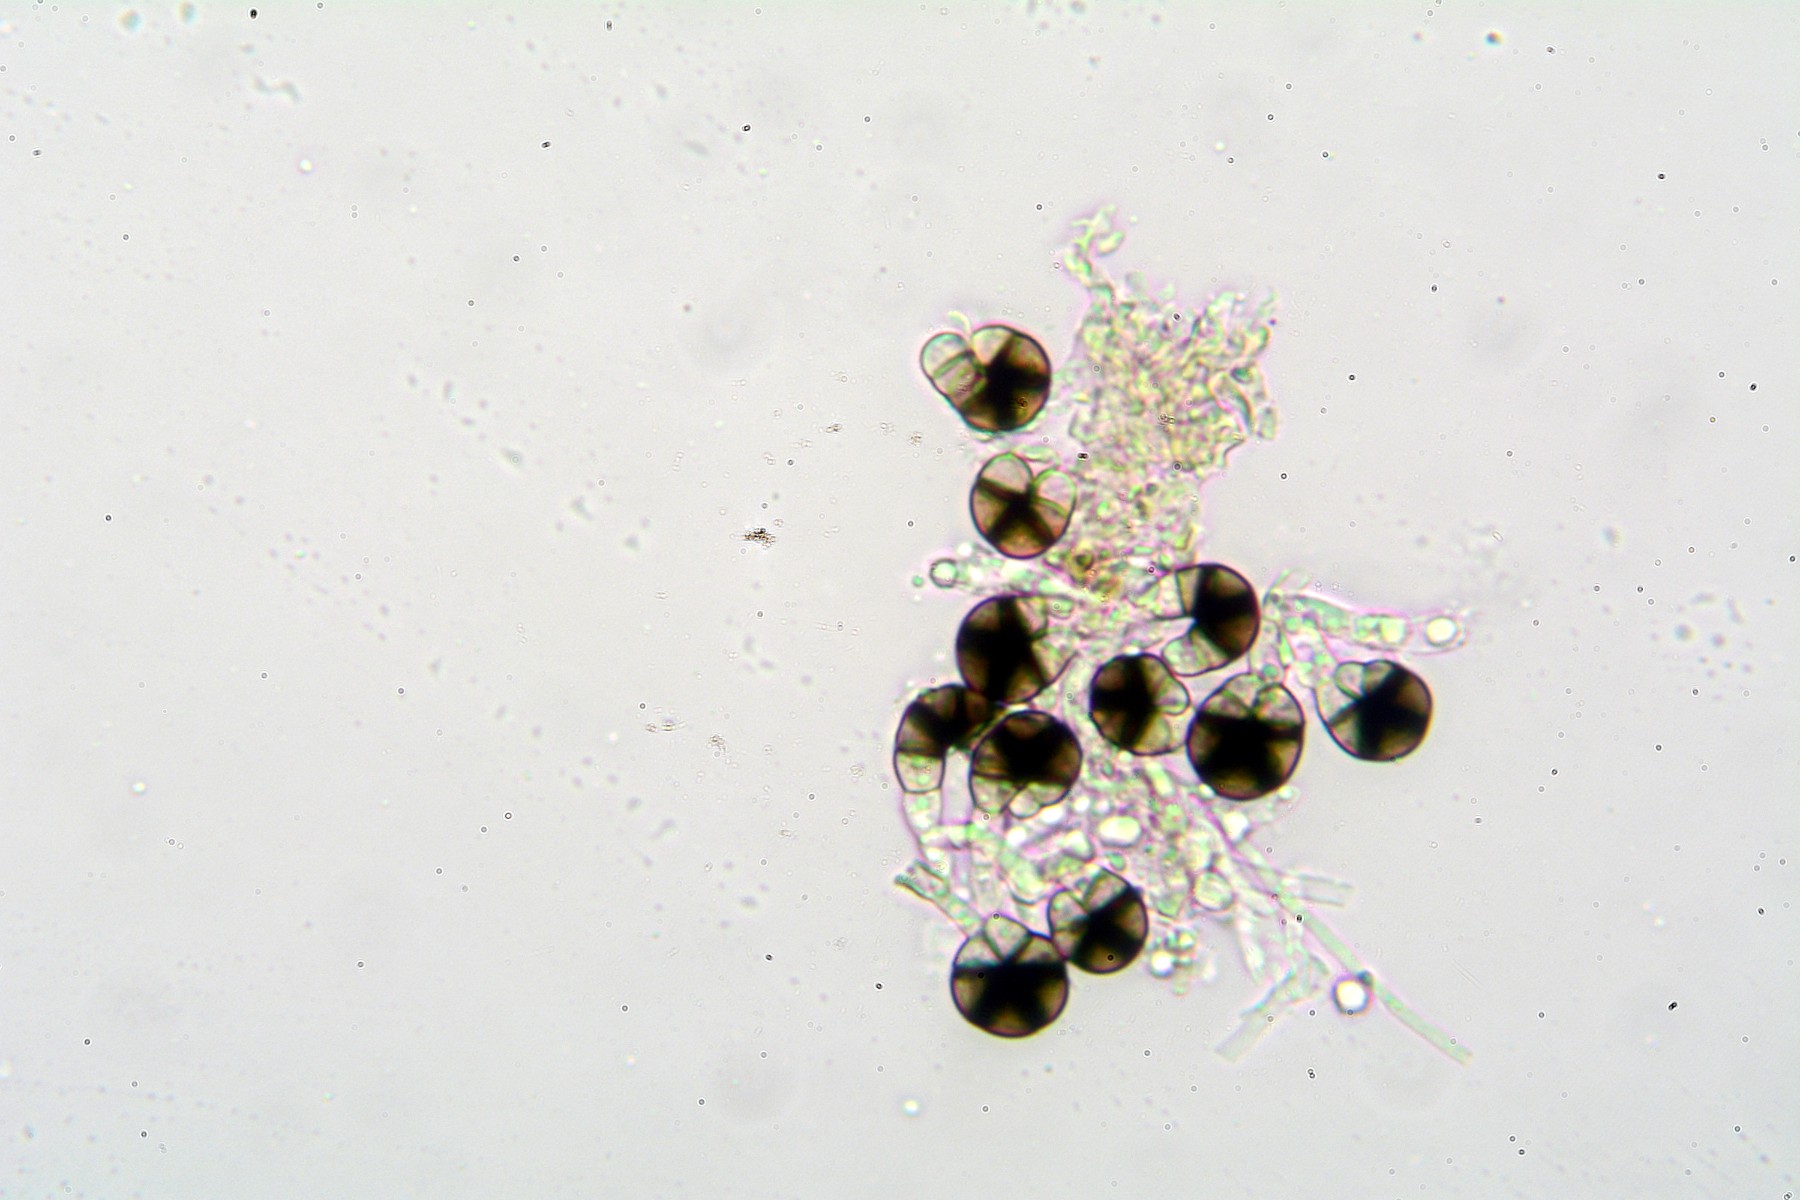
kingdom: Fungi
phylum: Ascomycota
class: Dothideomycetes
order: Tubeufiales
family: Tubeufiaceae
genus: Helicoma
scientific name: Helicoma monosporum
